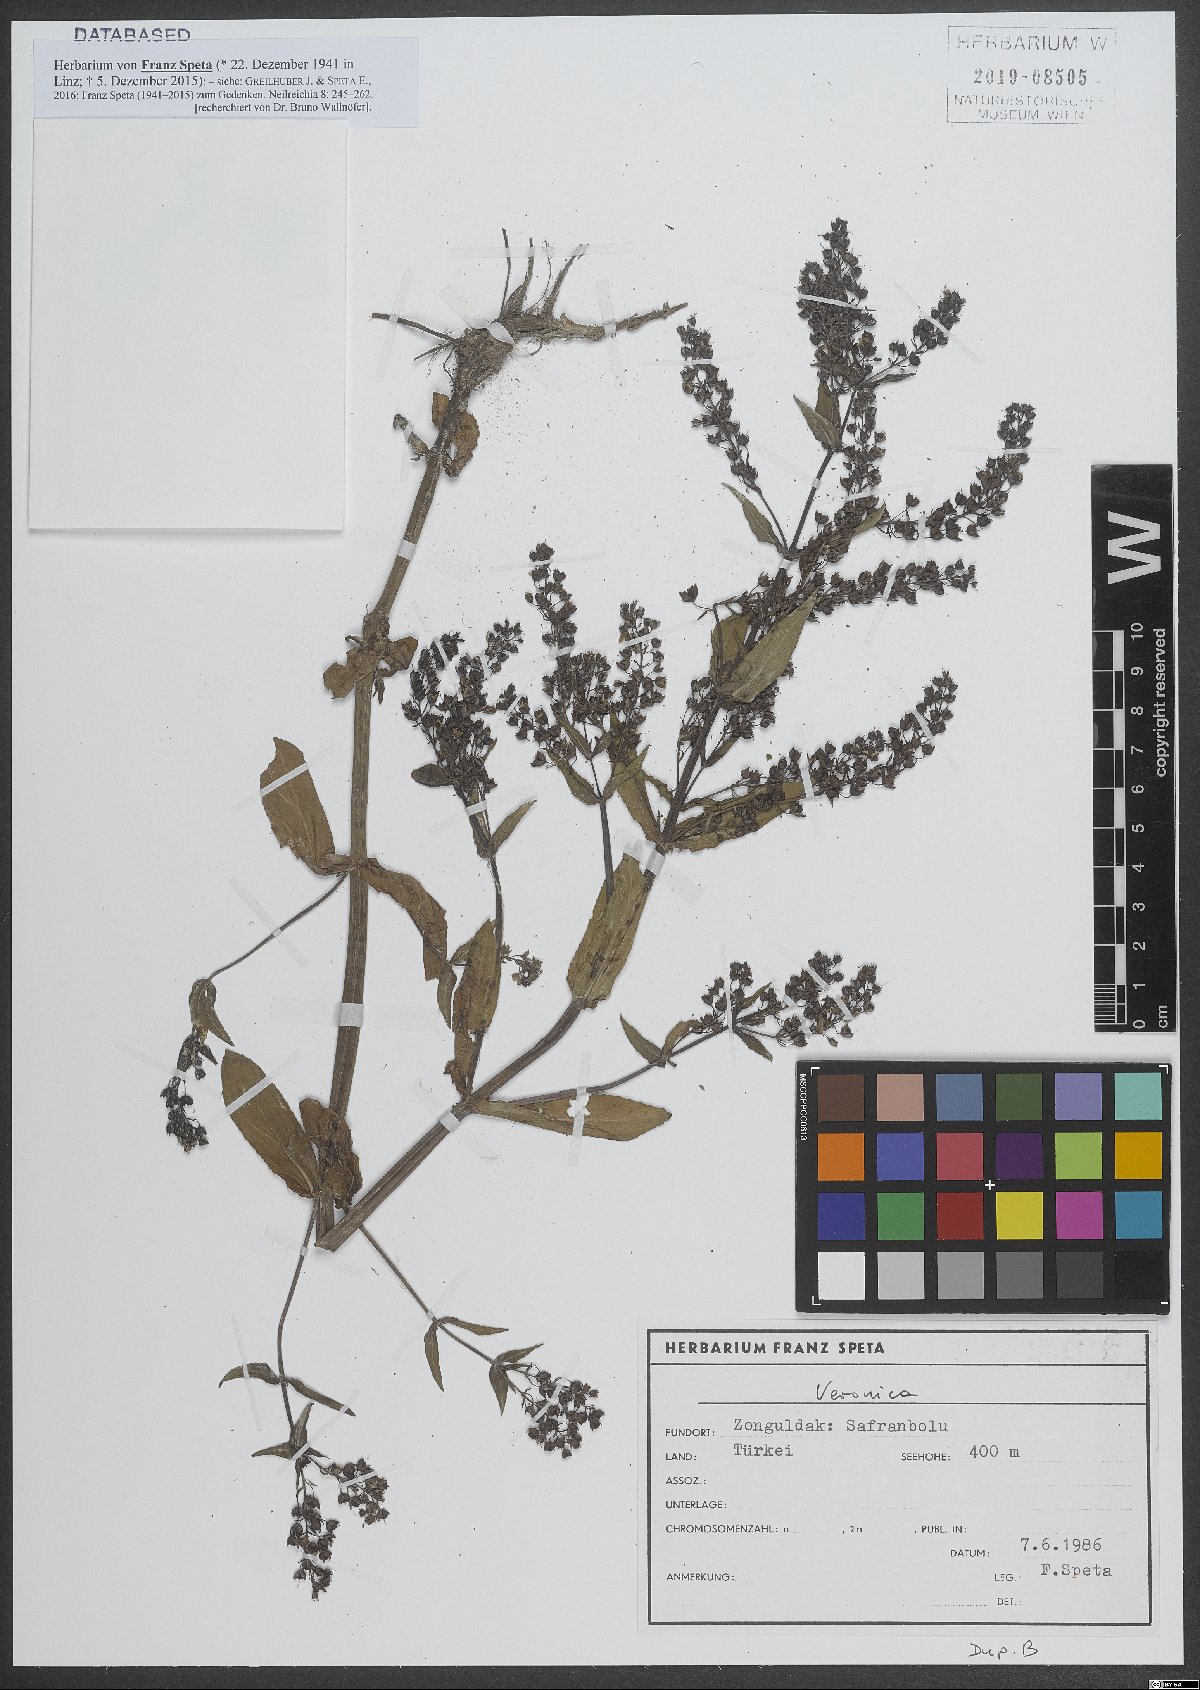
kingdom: Plantae
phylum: Tracheophyta
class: Magnoliopsida
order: Lamiales
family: Plantaginaceae
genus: Veronica
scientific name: Veronica
